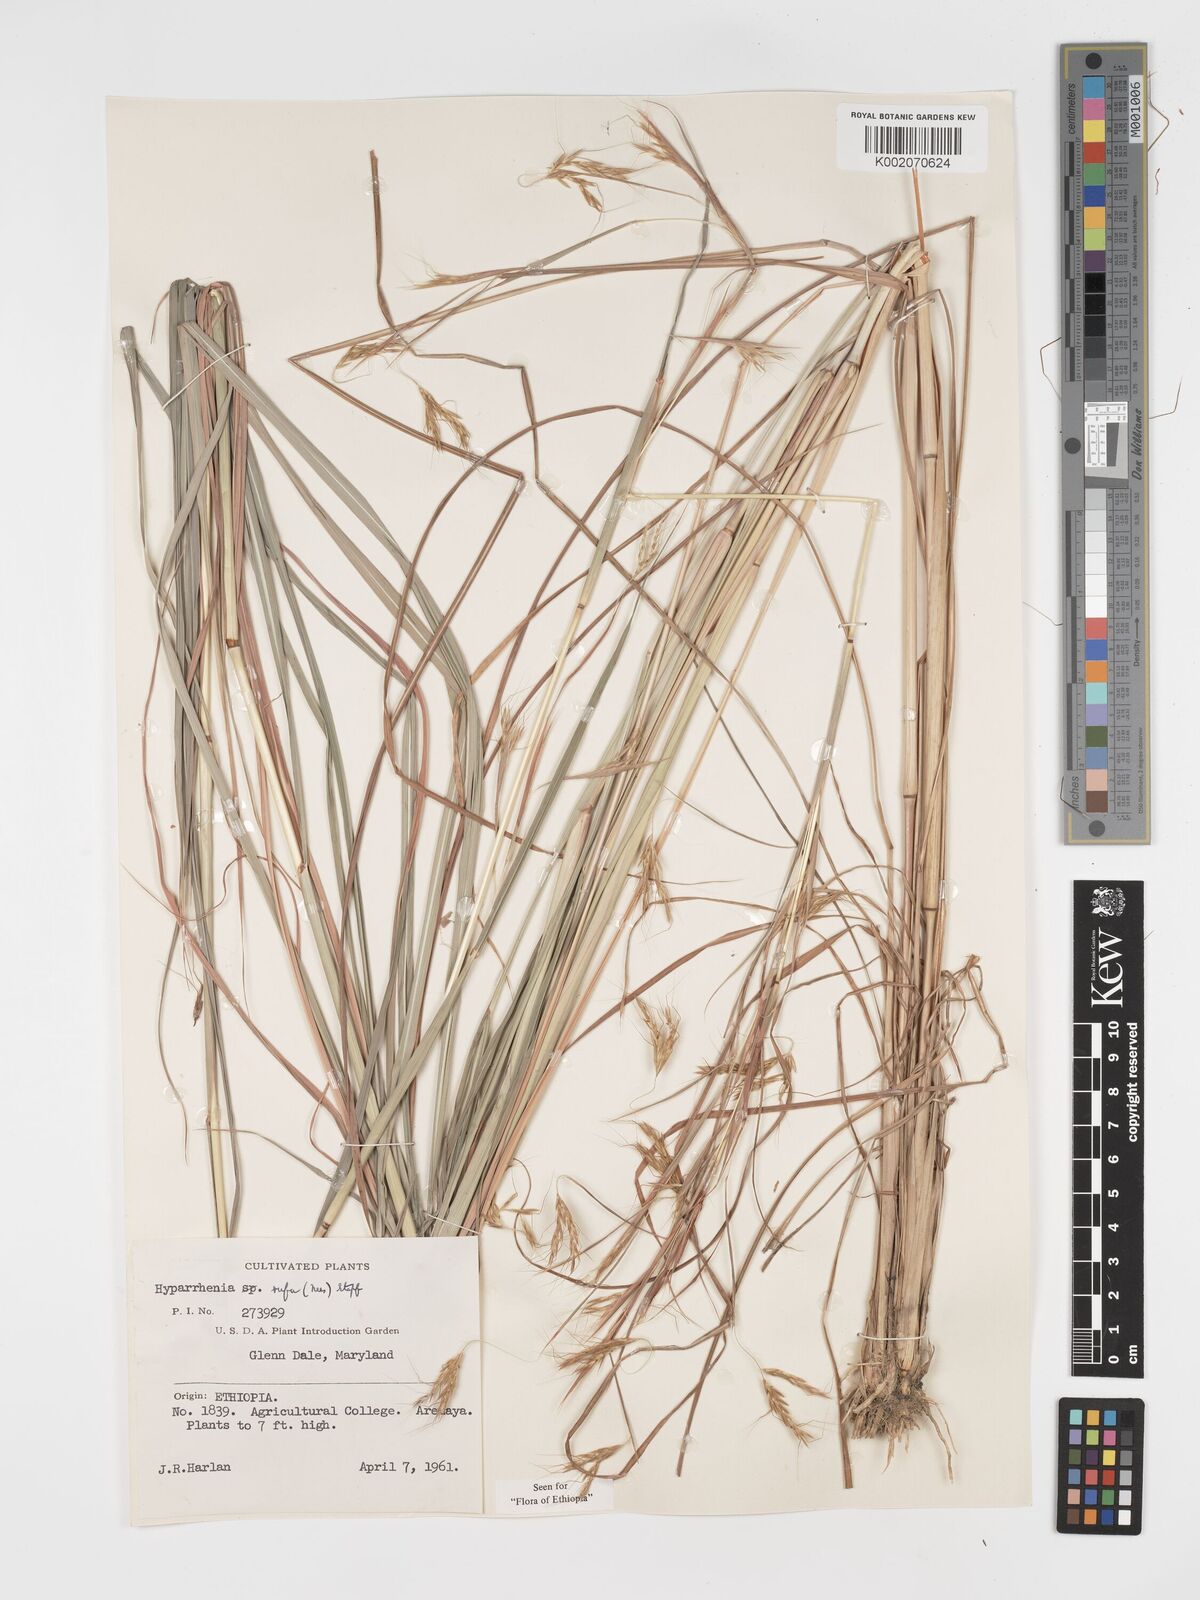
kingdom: Plantae
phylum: Tracheophyta
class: Liliopsida
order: Poales
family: Poaceae
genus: Hyparrhenia
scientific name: Hyparrhenia nyassae
